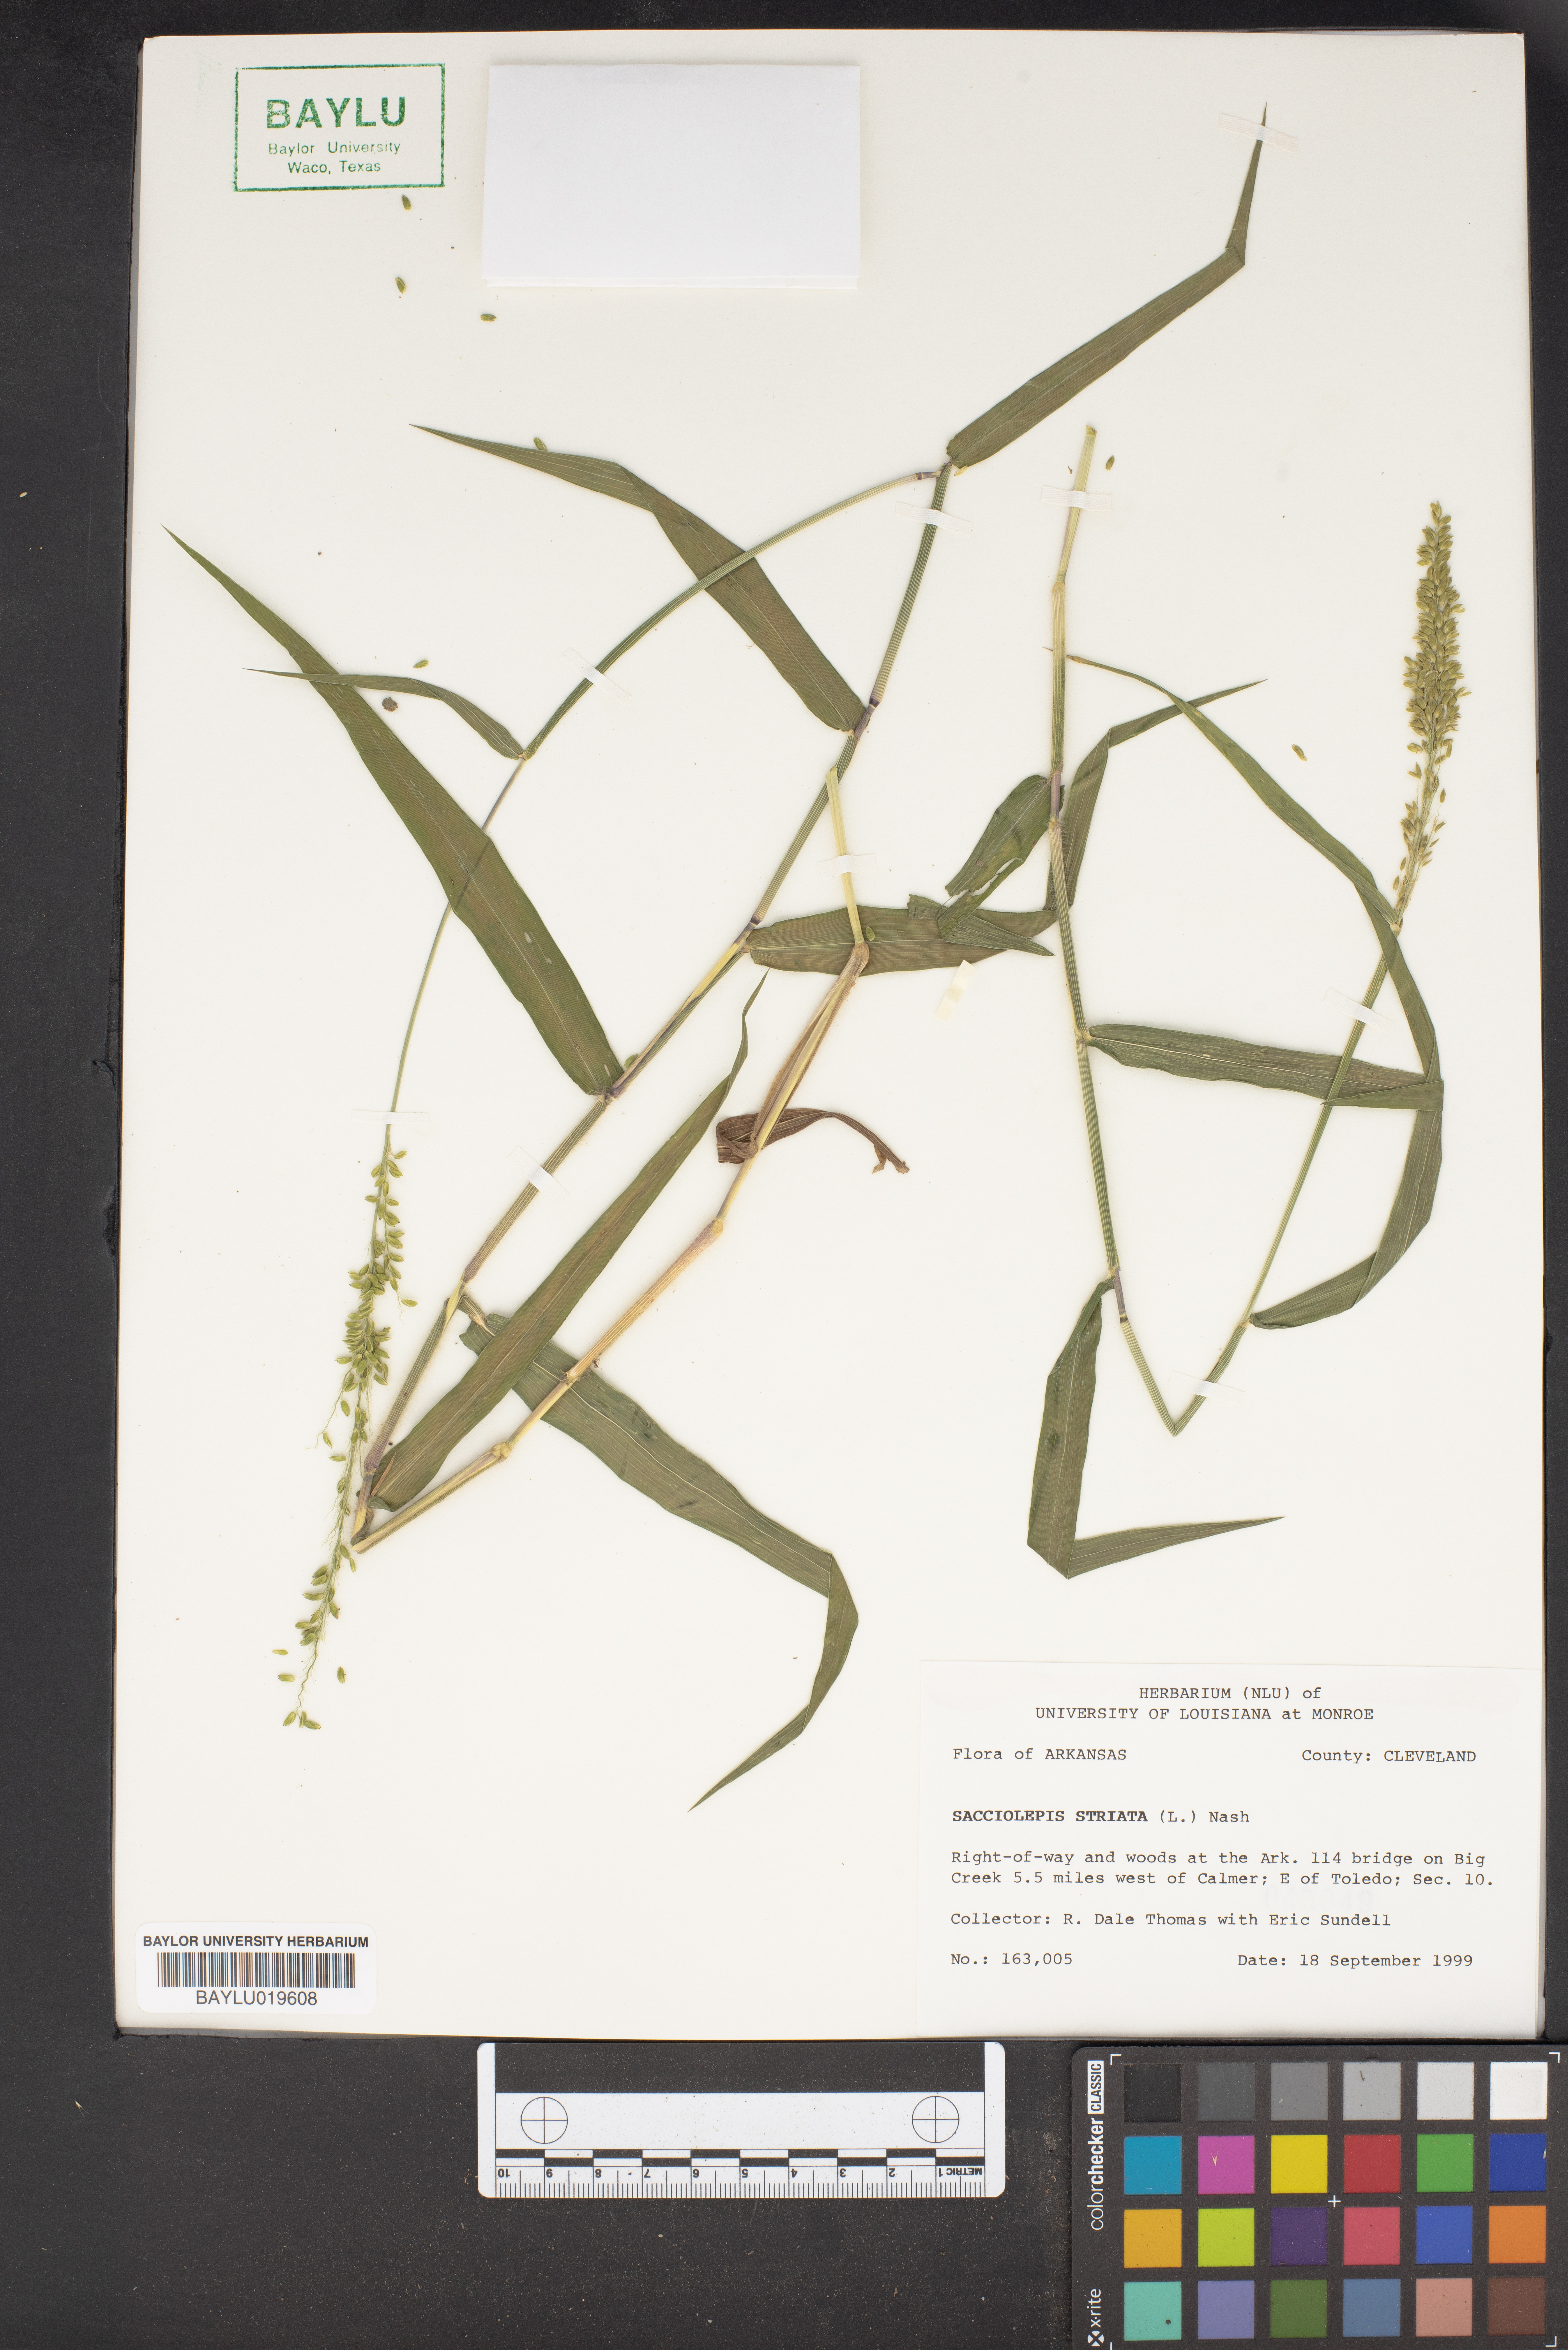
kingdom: Plantae
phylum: Tracheophyta
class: Liliopsida
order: Poales
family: Poaceae
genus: Sacciolepis
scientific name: Sacciolepis striata
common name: American cupscale
